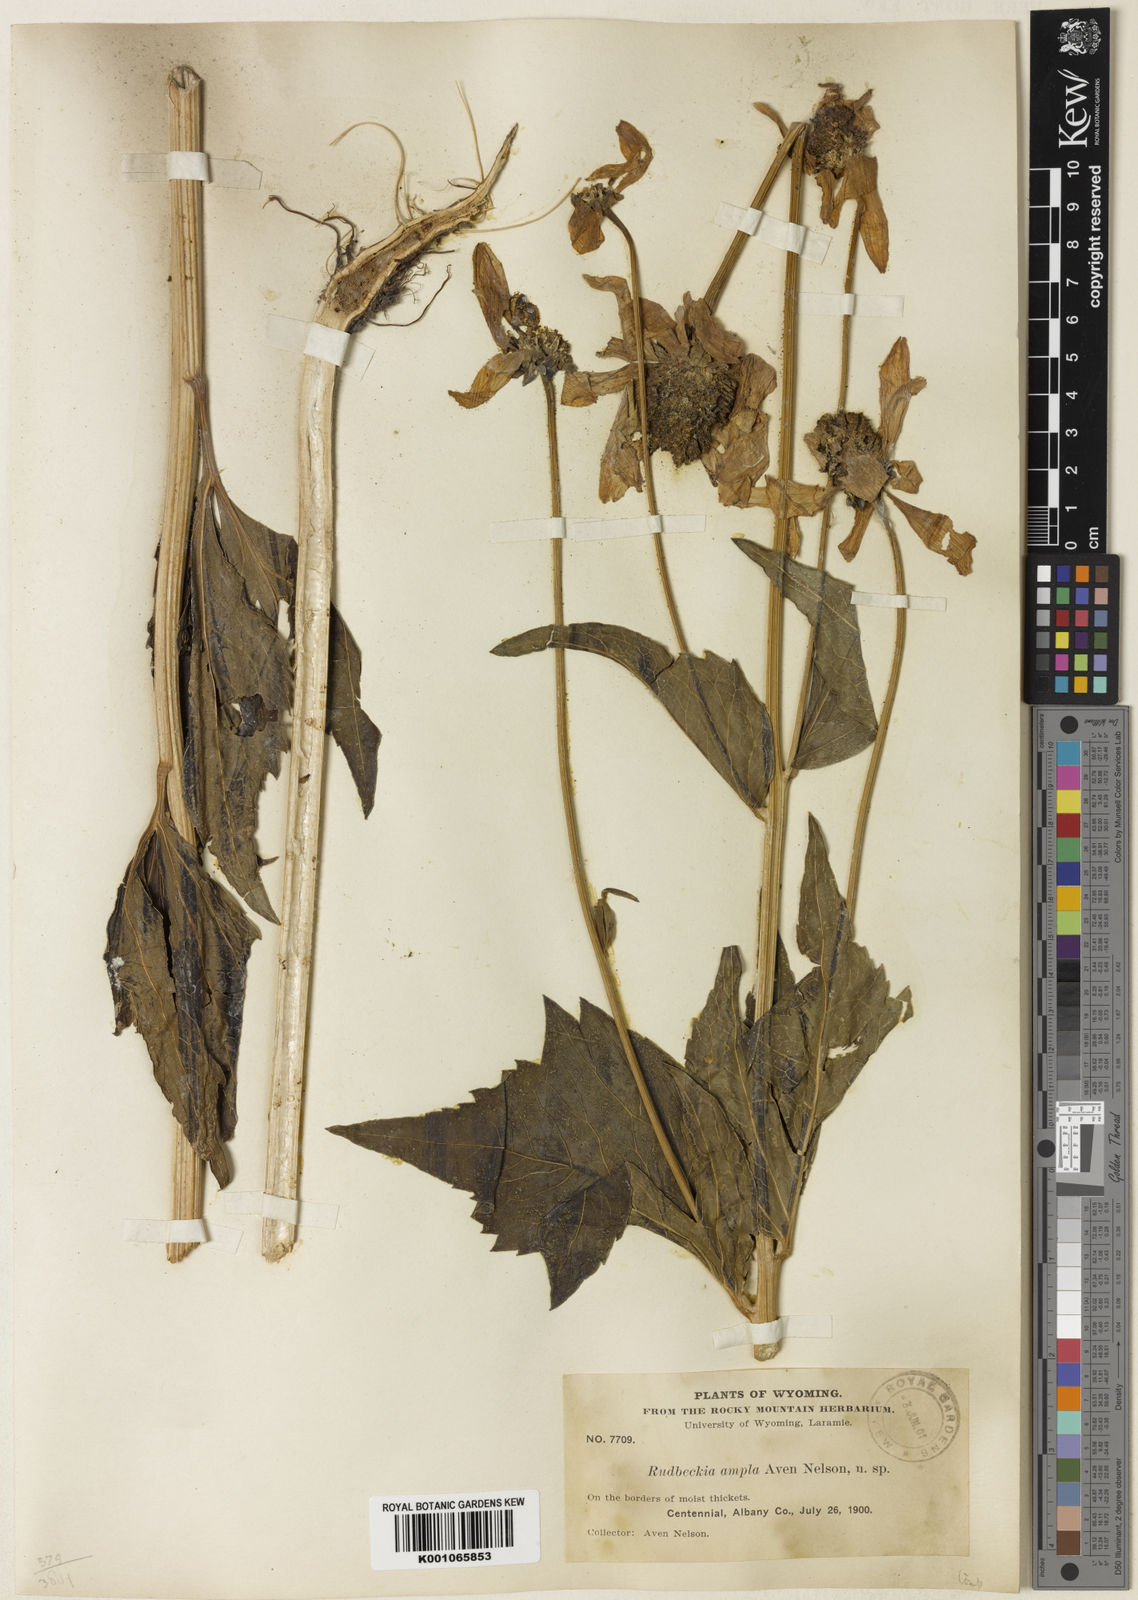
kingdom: Plantae
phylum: Tracheophyta
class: Magnoliopsida
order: Asterales
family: Asteraceae
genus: Rudbeckia
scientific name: Rudbeckia laciniata
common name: Coneflower
